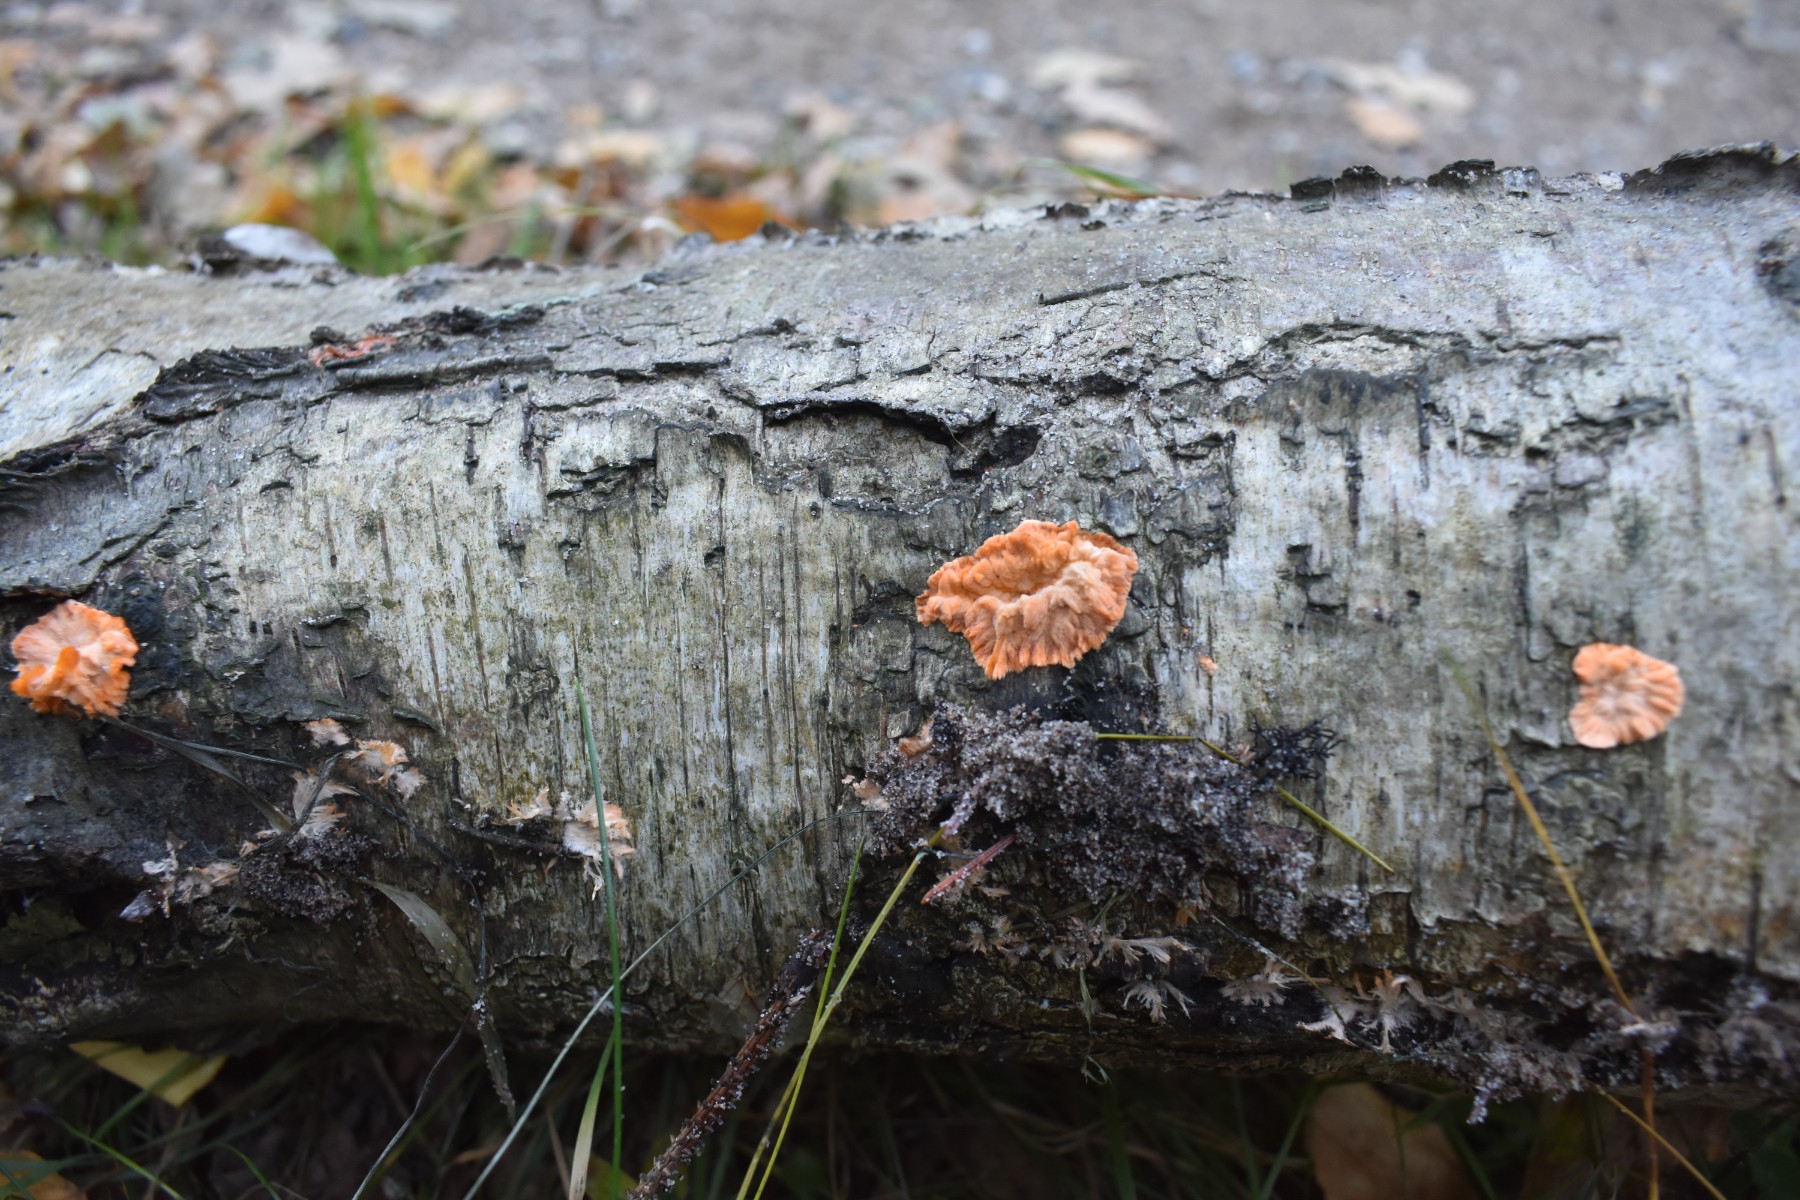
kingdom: Fungi
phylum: Basidiomycota
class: Agaricomycetes
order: Polyporales
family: Meruliaceae
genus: Phlebia
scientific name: Phlebia radiata
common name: stråle-åresvamp
